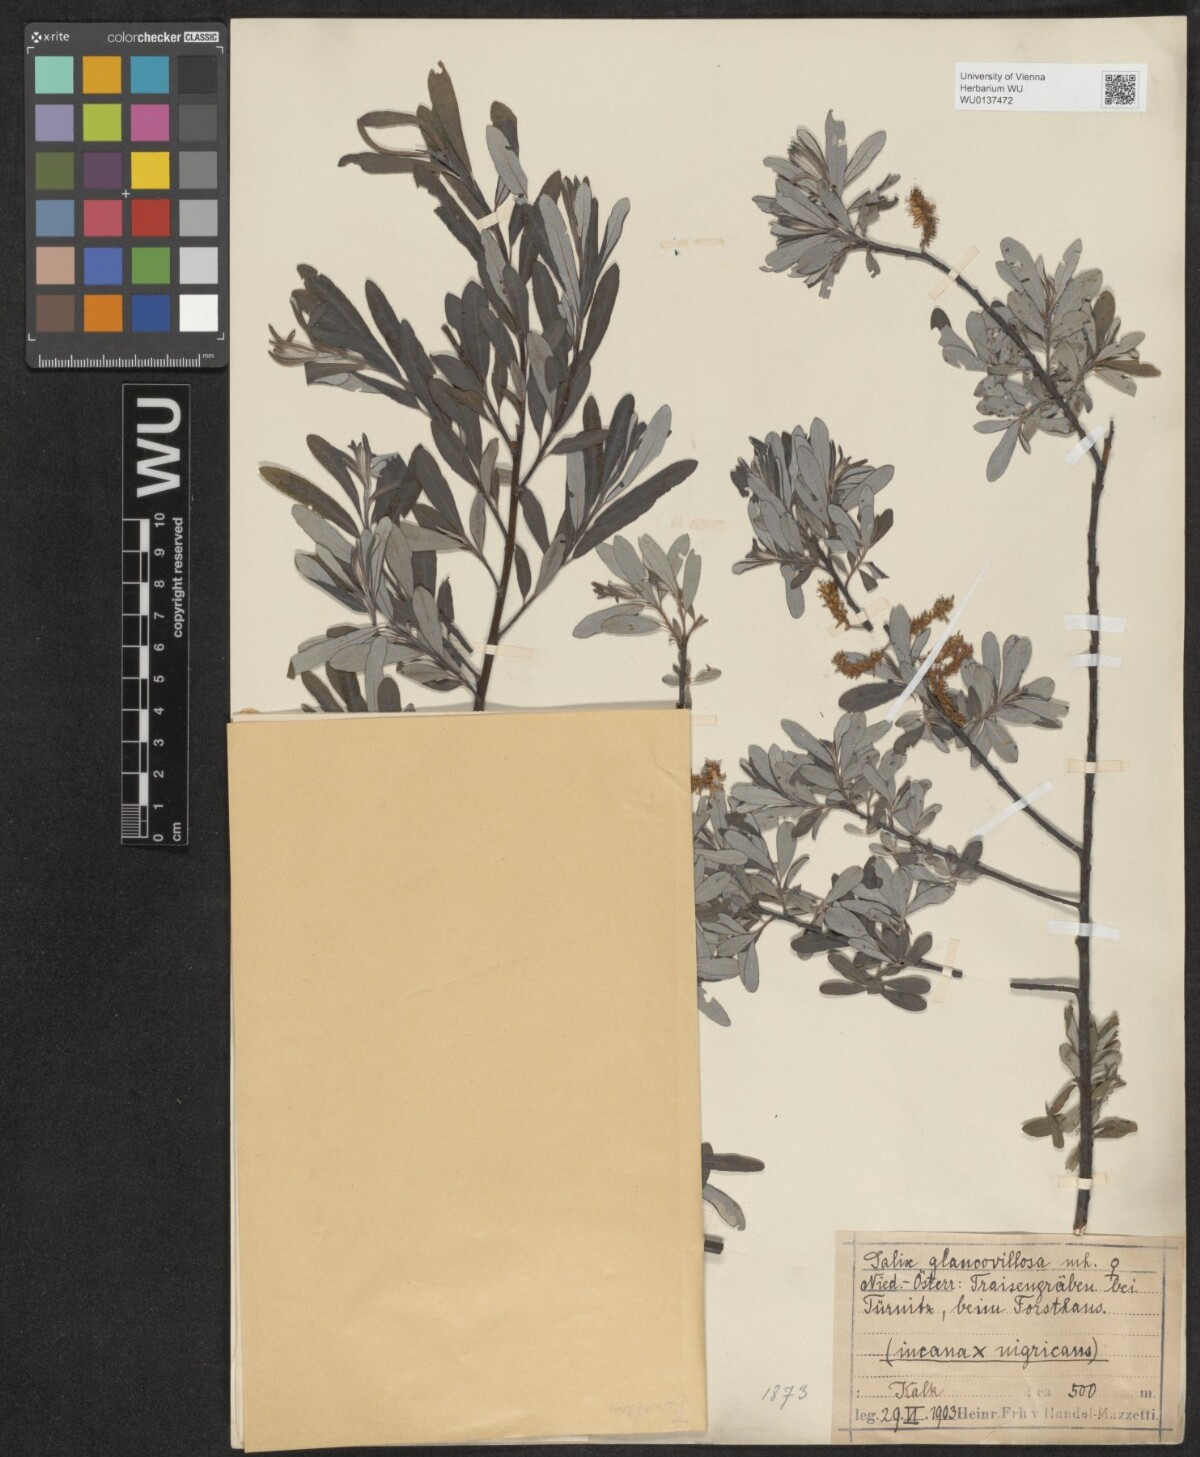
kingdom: Plantae
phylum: Tracheophyta
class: Magnoliopsida
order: Malpighiales
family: Salicaceae
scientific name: Salicaceae
